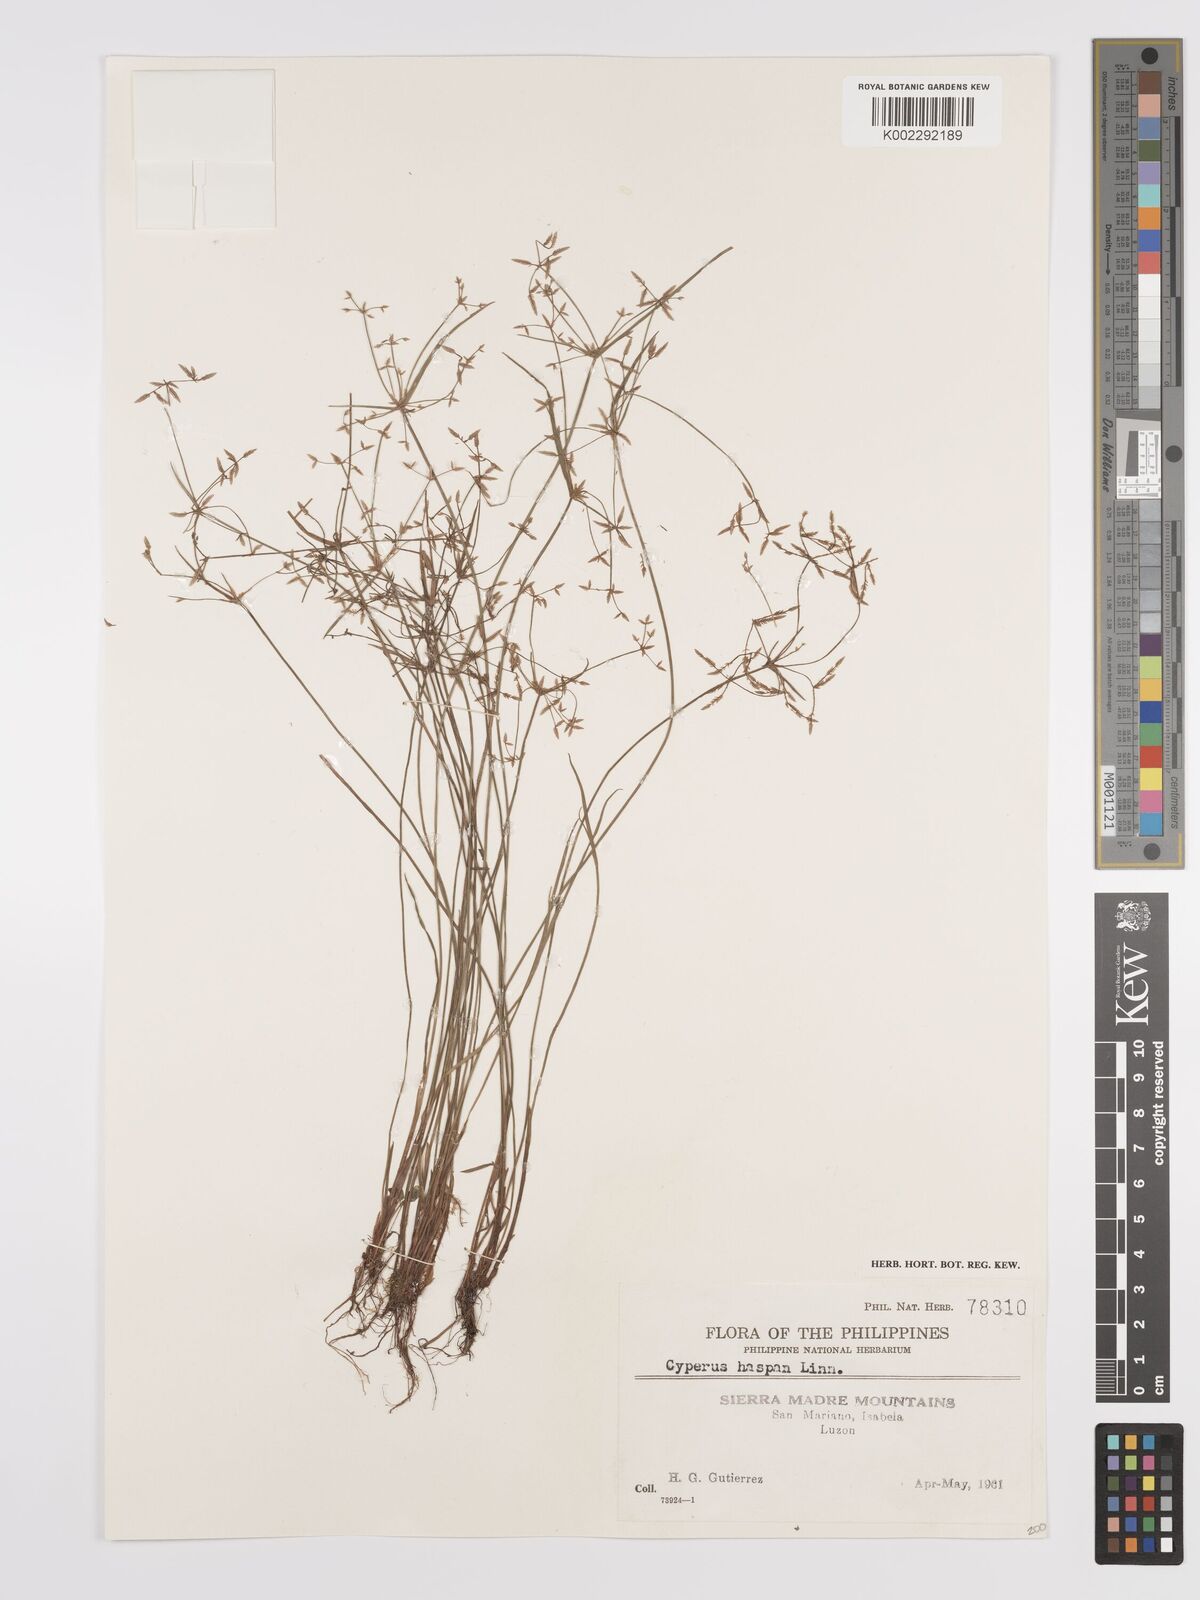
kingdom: Plantae
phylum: Tracheophyta
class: Liliopsida
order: Poales
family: Cyperaceae
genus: Cyperus
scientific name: Cyperus haspan
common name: Haspan flatsedge
